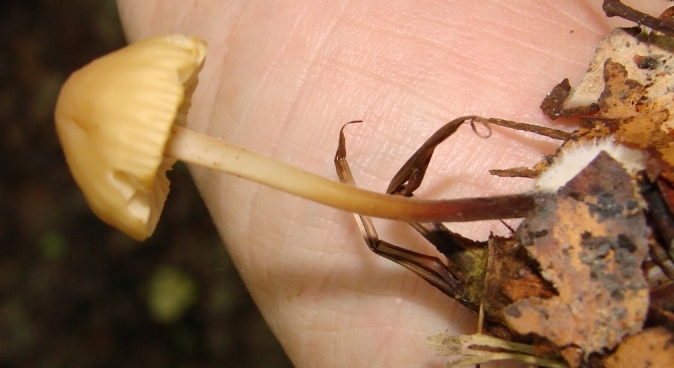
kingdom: Fungi
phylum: Basidiomycota
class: Agaricomycetes
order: Agaricales
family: Marasmiaceae
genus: Marasmius
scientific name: Marasmius torquescens
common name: filtfodet bruskhat
